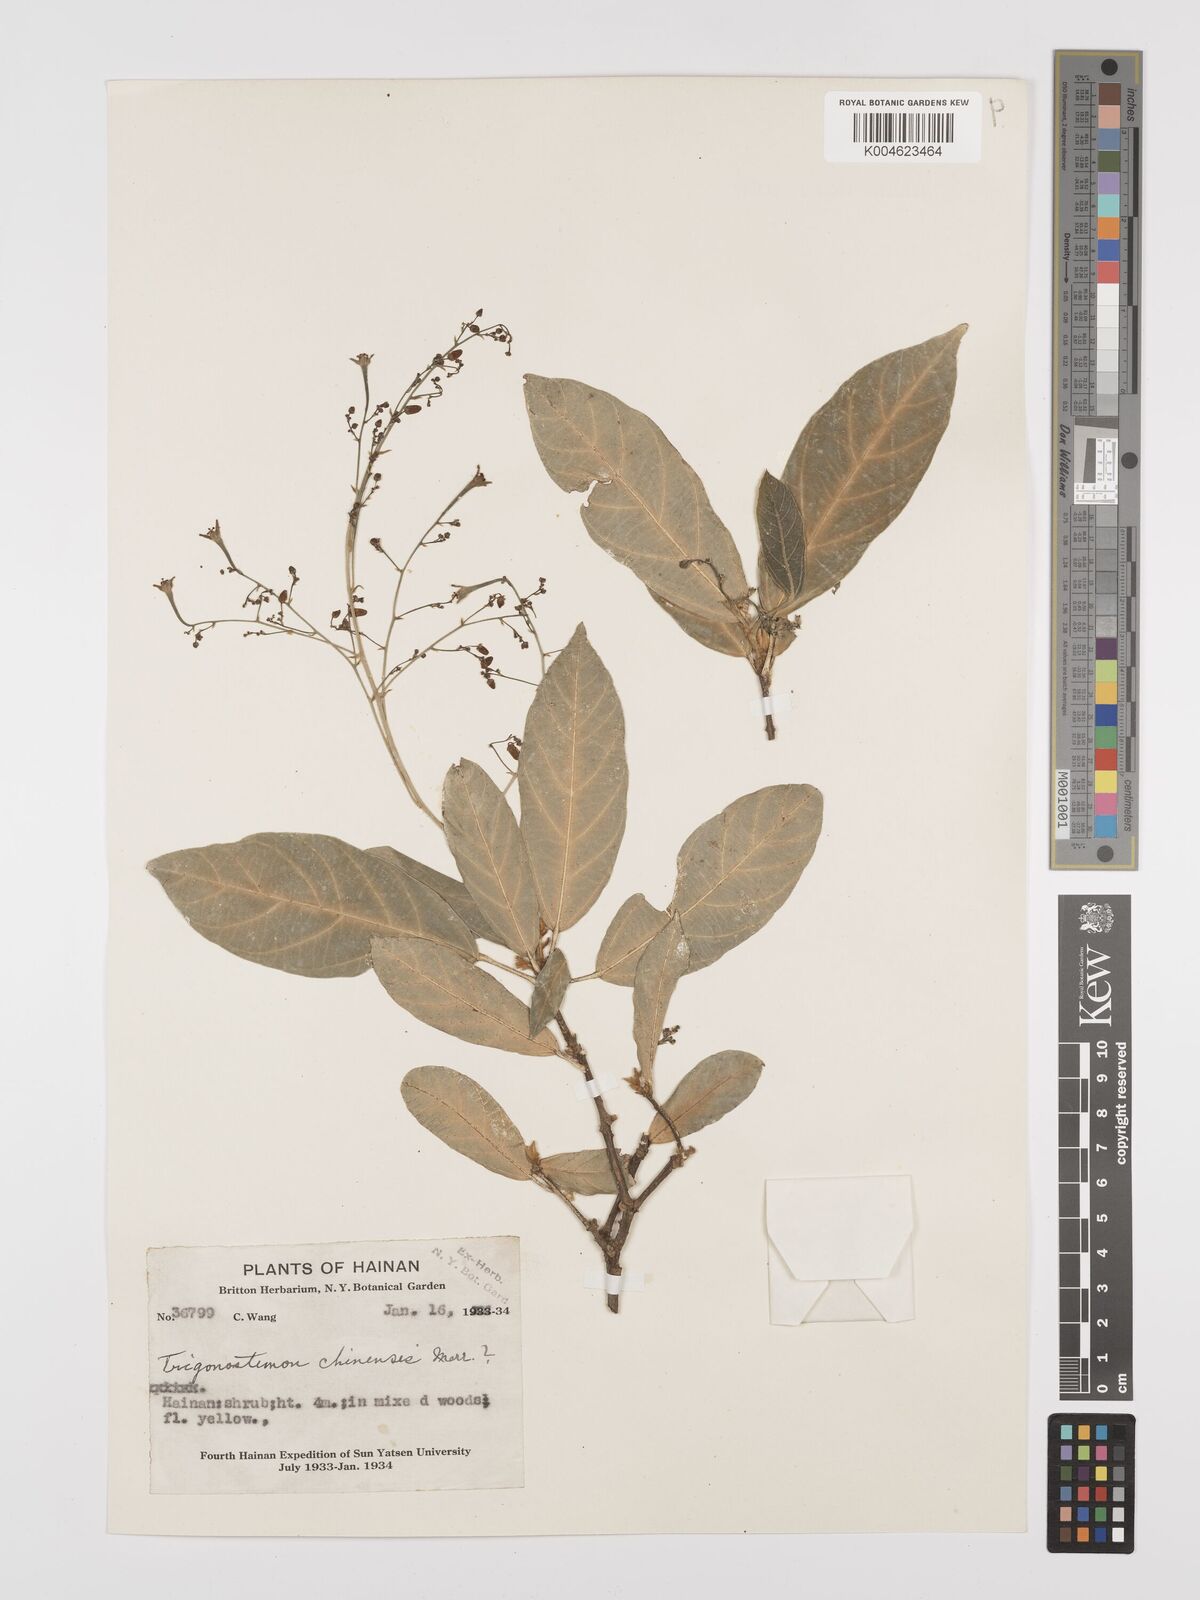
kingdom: Plantae
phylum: Tracheophyta
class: Magnoliopsida
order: Malpighiales
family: Euphorbiaceae
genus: Trigonostemon
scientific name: Trigonostemon viridissimus
